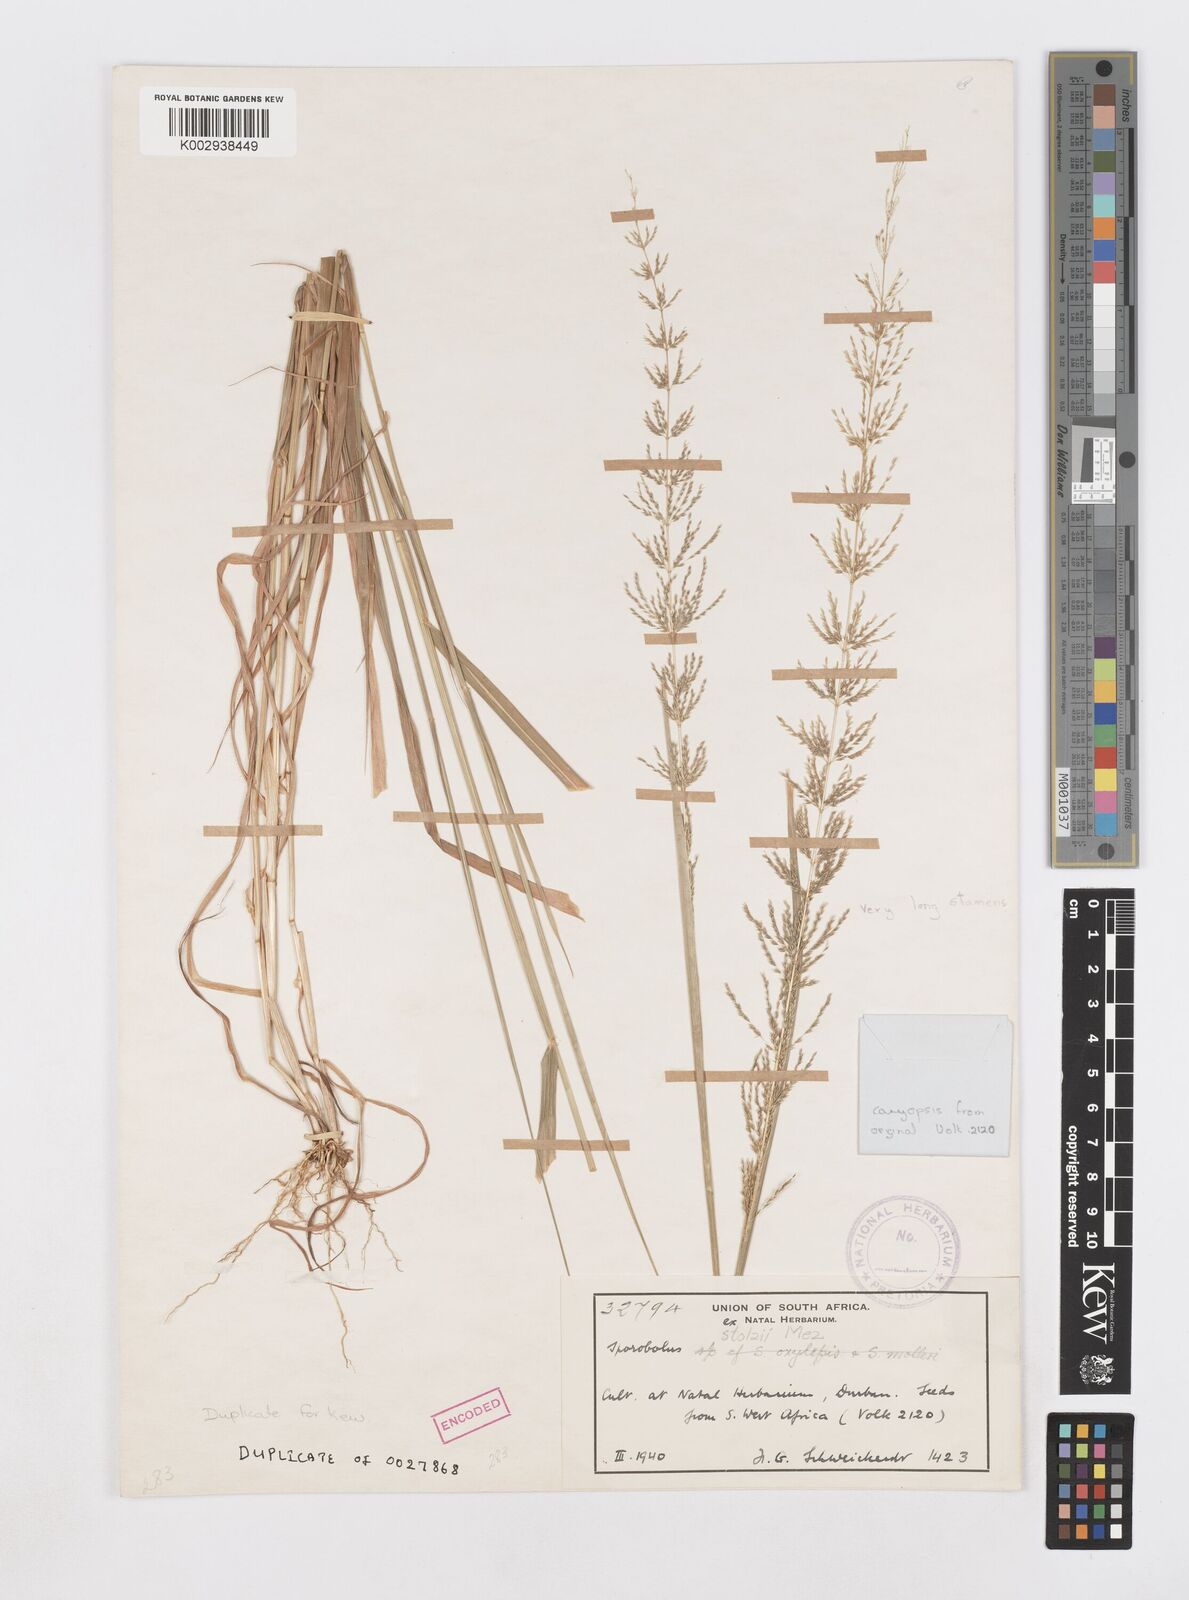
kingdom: Plantae
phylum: Tracheophyta
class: Liliopsida
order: Poales
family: Poaceae
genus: Sporobolus
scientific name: Sporobolus
